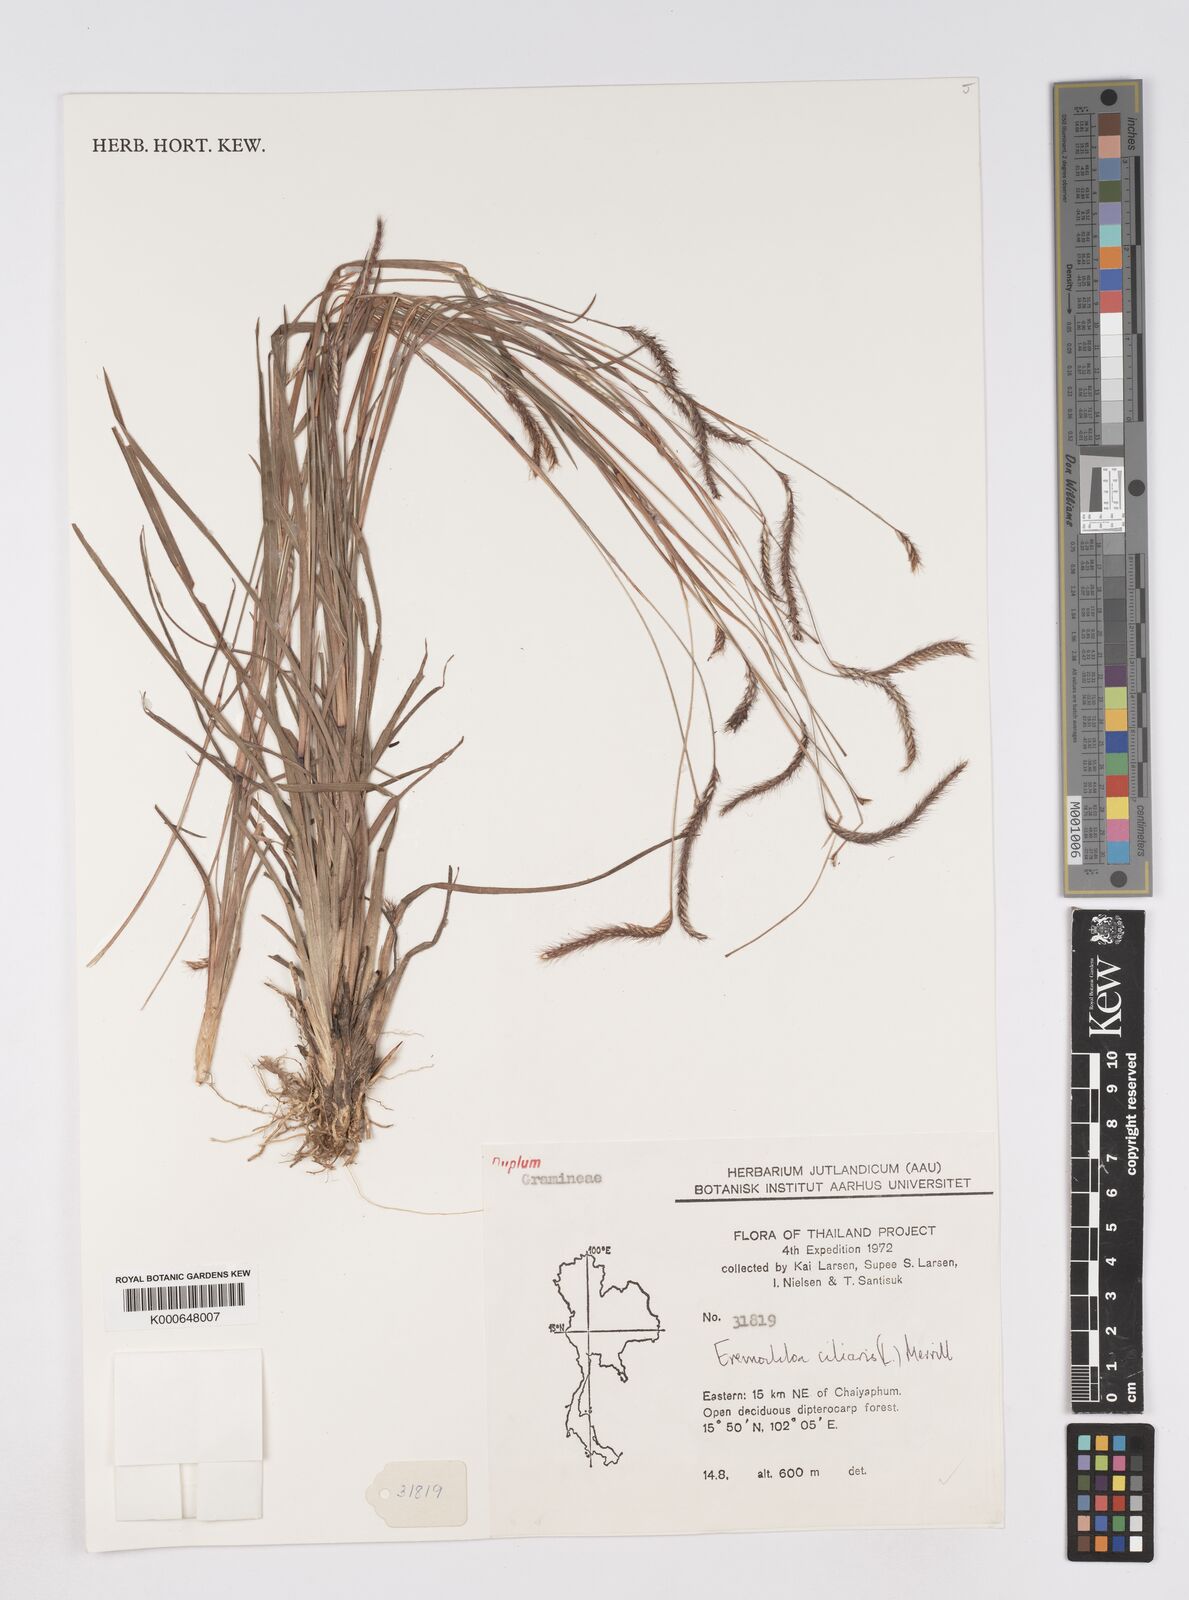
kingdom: Plantae
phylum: Tracheophyta
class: Liliopsida
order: Poales
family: Poaceae
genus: Eremochloa
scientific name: Eremochloa ciliaris
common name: Fringed centipede grass
